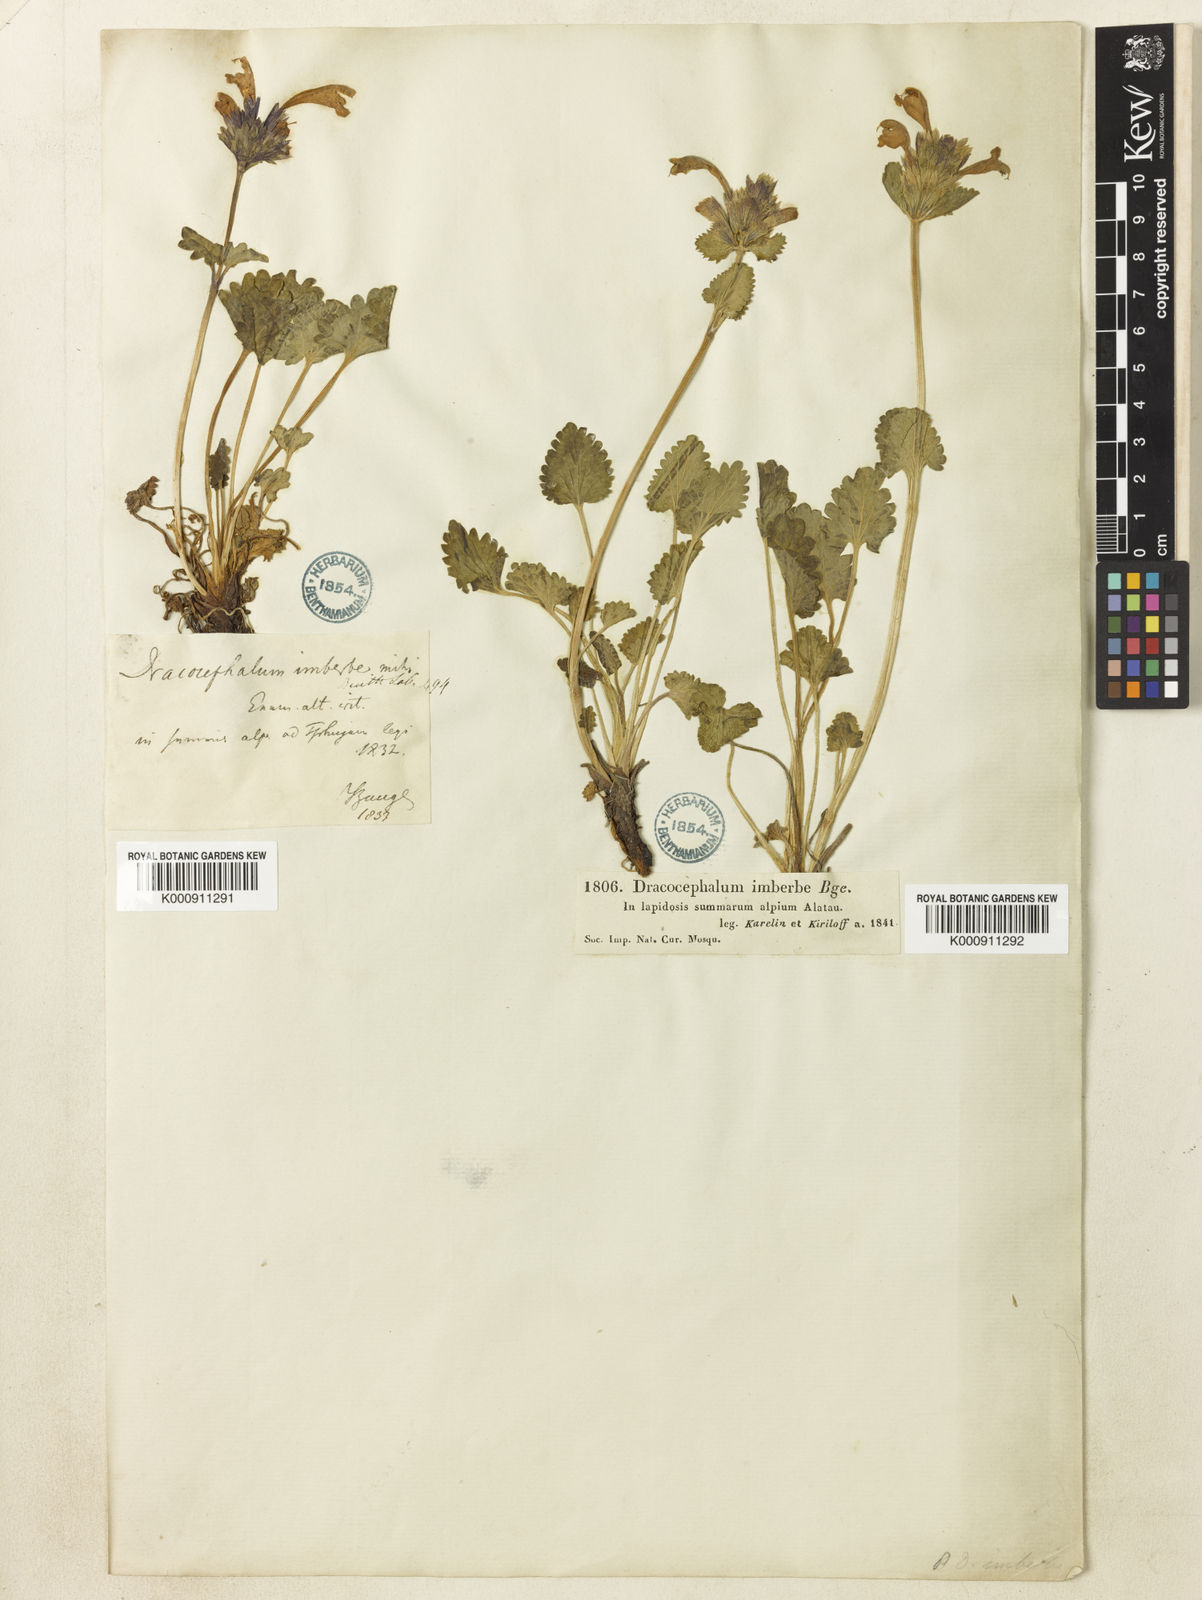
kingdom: Plantae
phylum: Tracheophyta
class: Magnoliopsida
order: Lamiales
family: Lamiaceae
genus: Dracocephalum
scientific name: Dracocephalum imberbe
